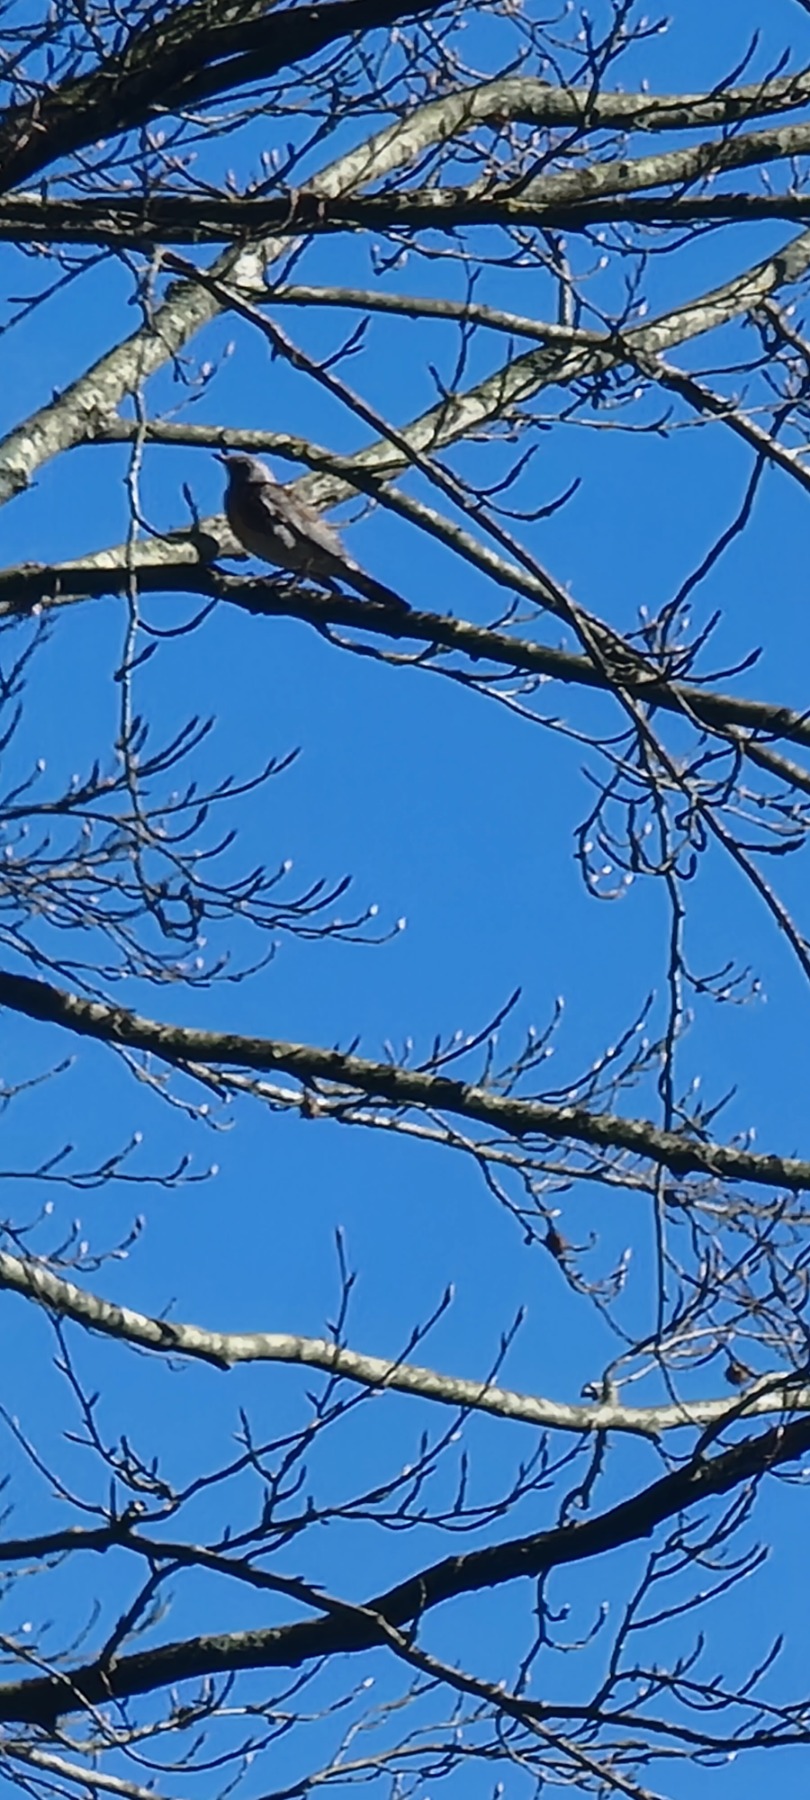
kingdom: Animalia
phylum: Chordata
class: Aves
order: Passeriformes
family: Turdidae
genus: Turdus
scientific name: Turdus pilaris
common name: Sjagger
